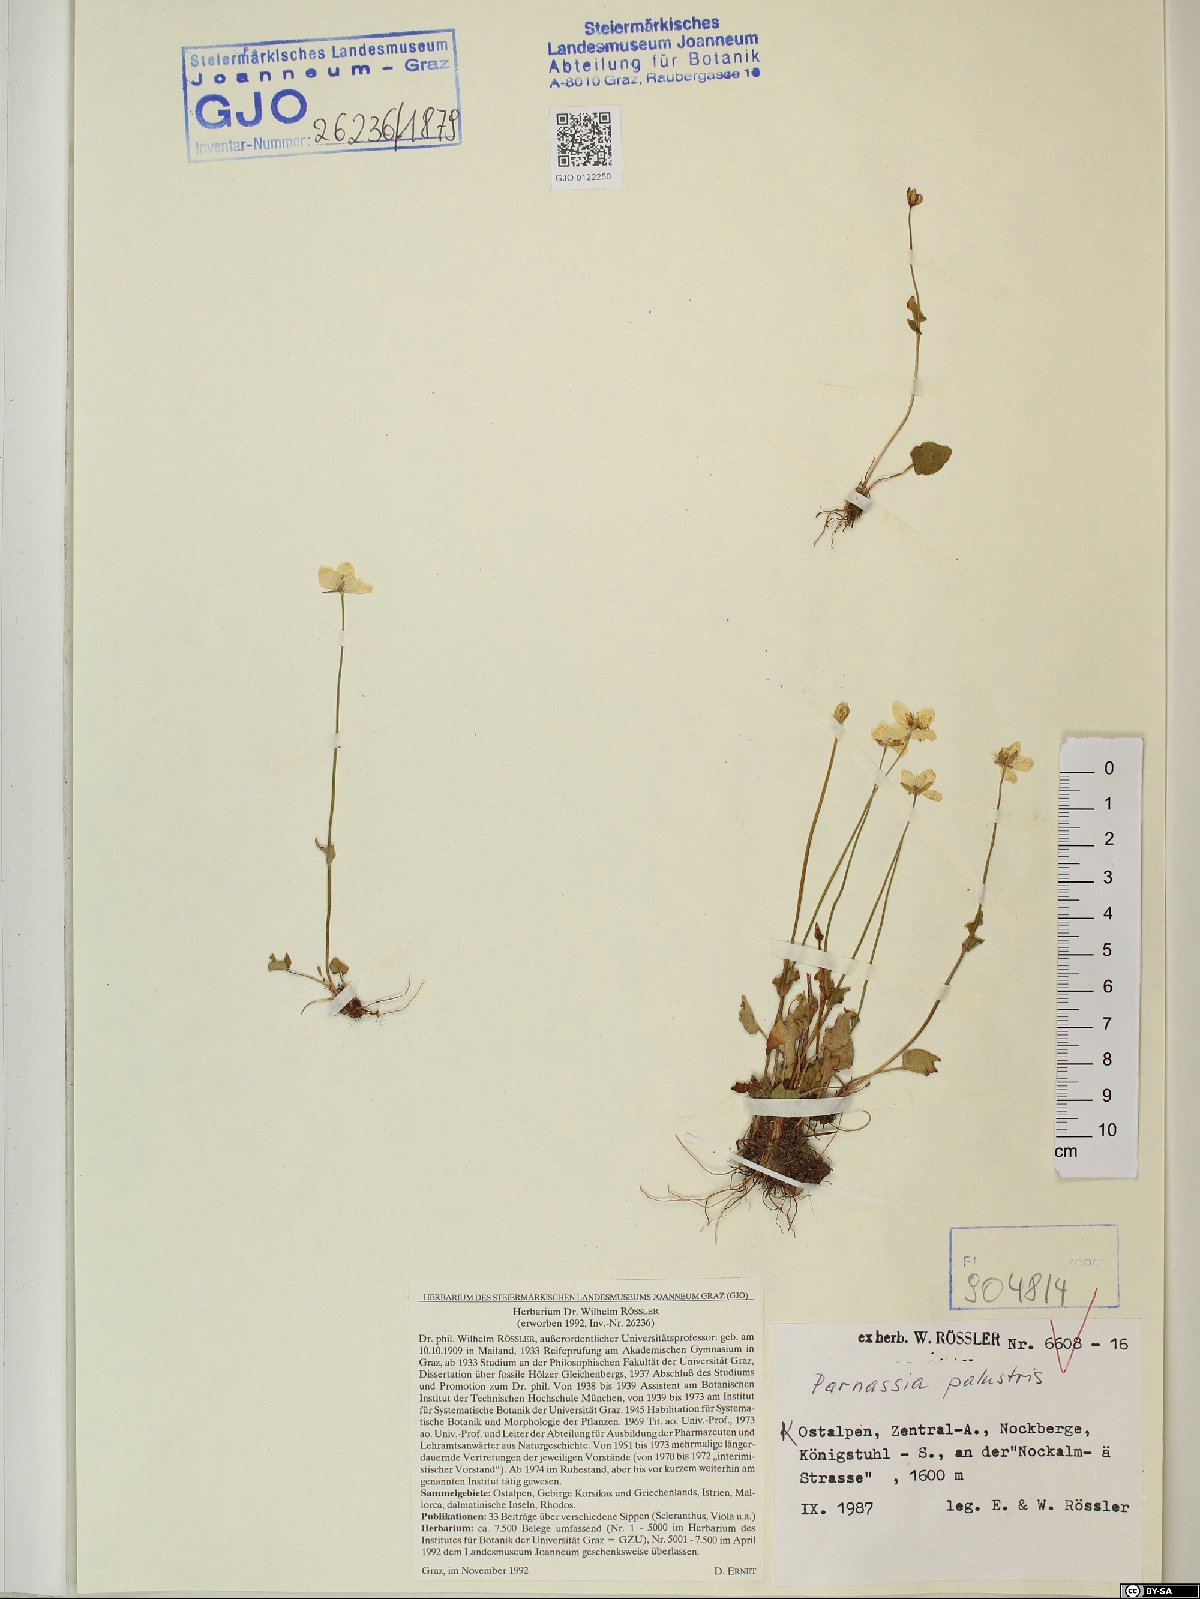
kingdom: Plantae
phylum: Tracheophyta
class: Magnoliopsida
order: Celastrales
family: Parnassiaceae
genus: Parnassia
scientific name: Parnassia palustris
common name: Grass-of-parnassus
